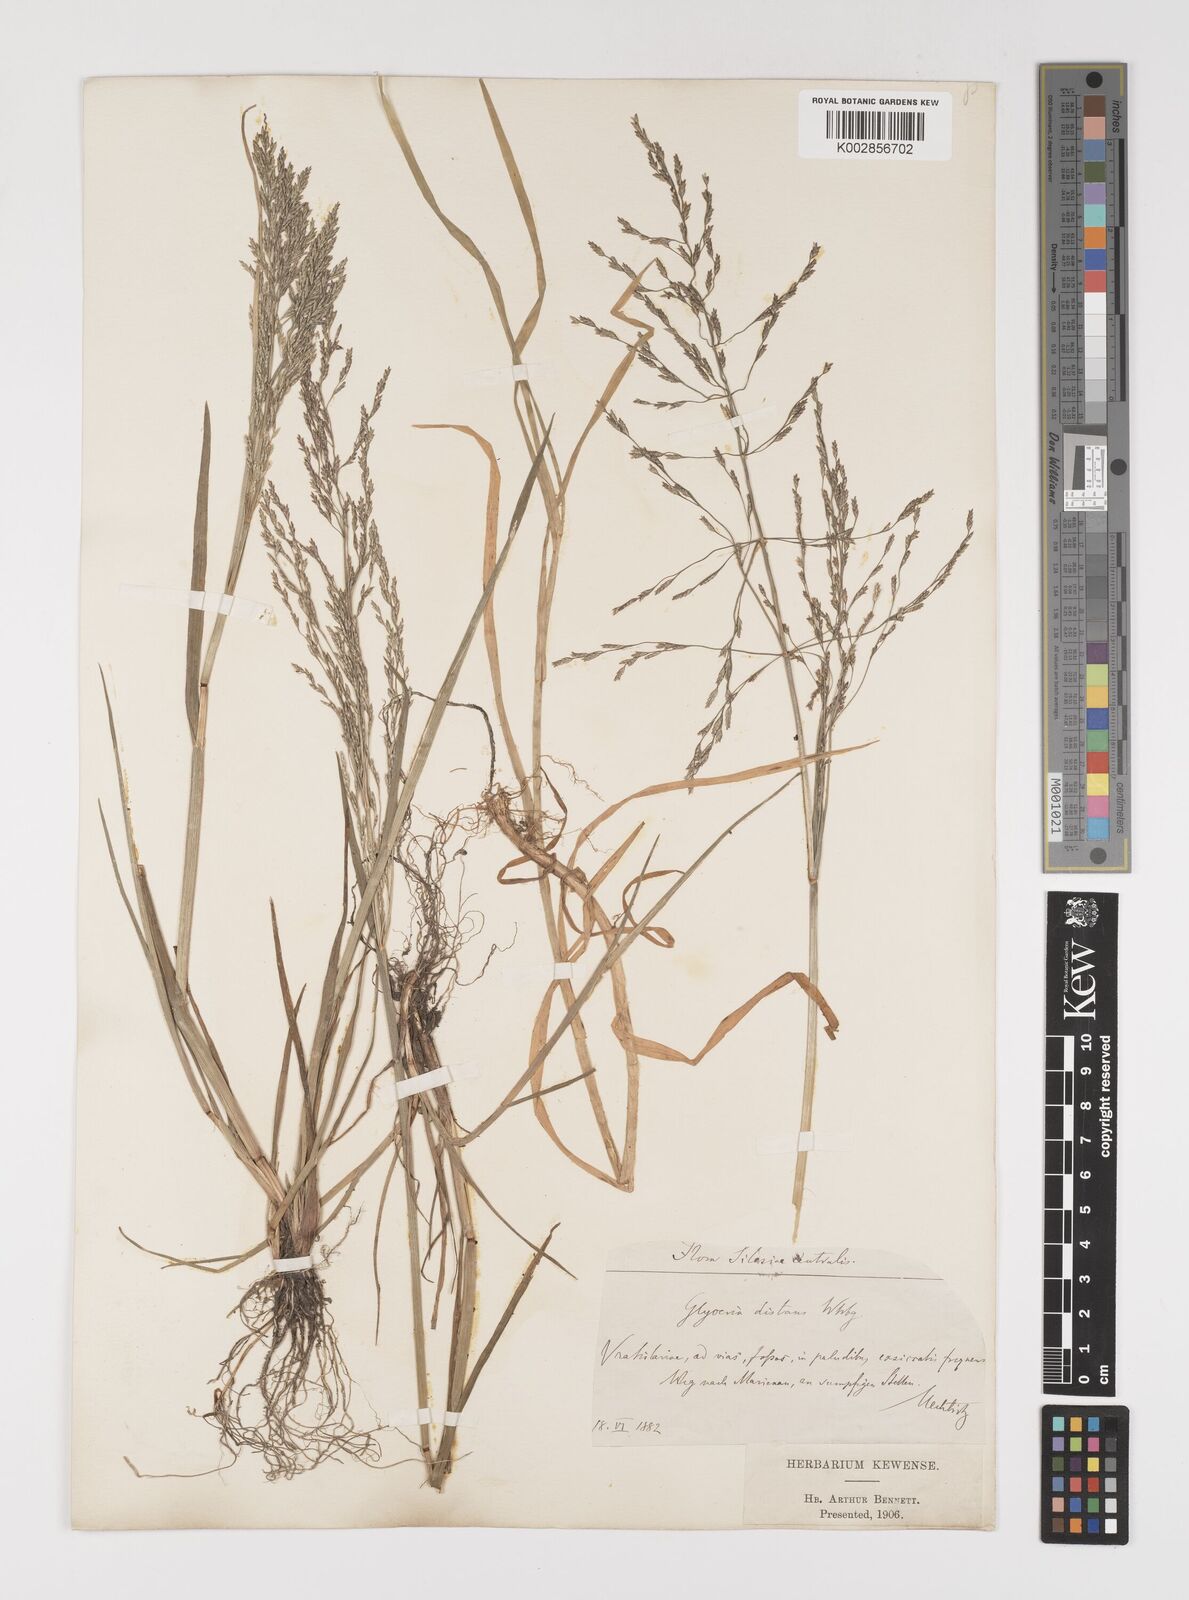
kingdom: Plantae
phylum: Tracheophyta
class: Liliopsida
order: Poales
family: Poaceae
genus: Puccinellia
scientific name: Puccinellia distans
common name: Weeping alkaligrass
